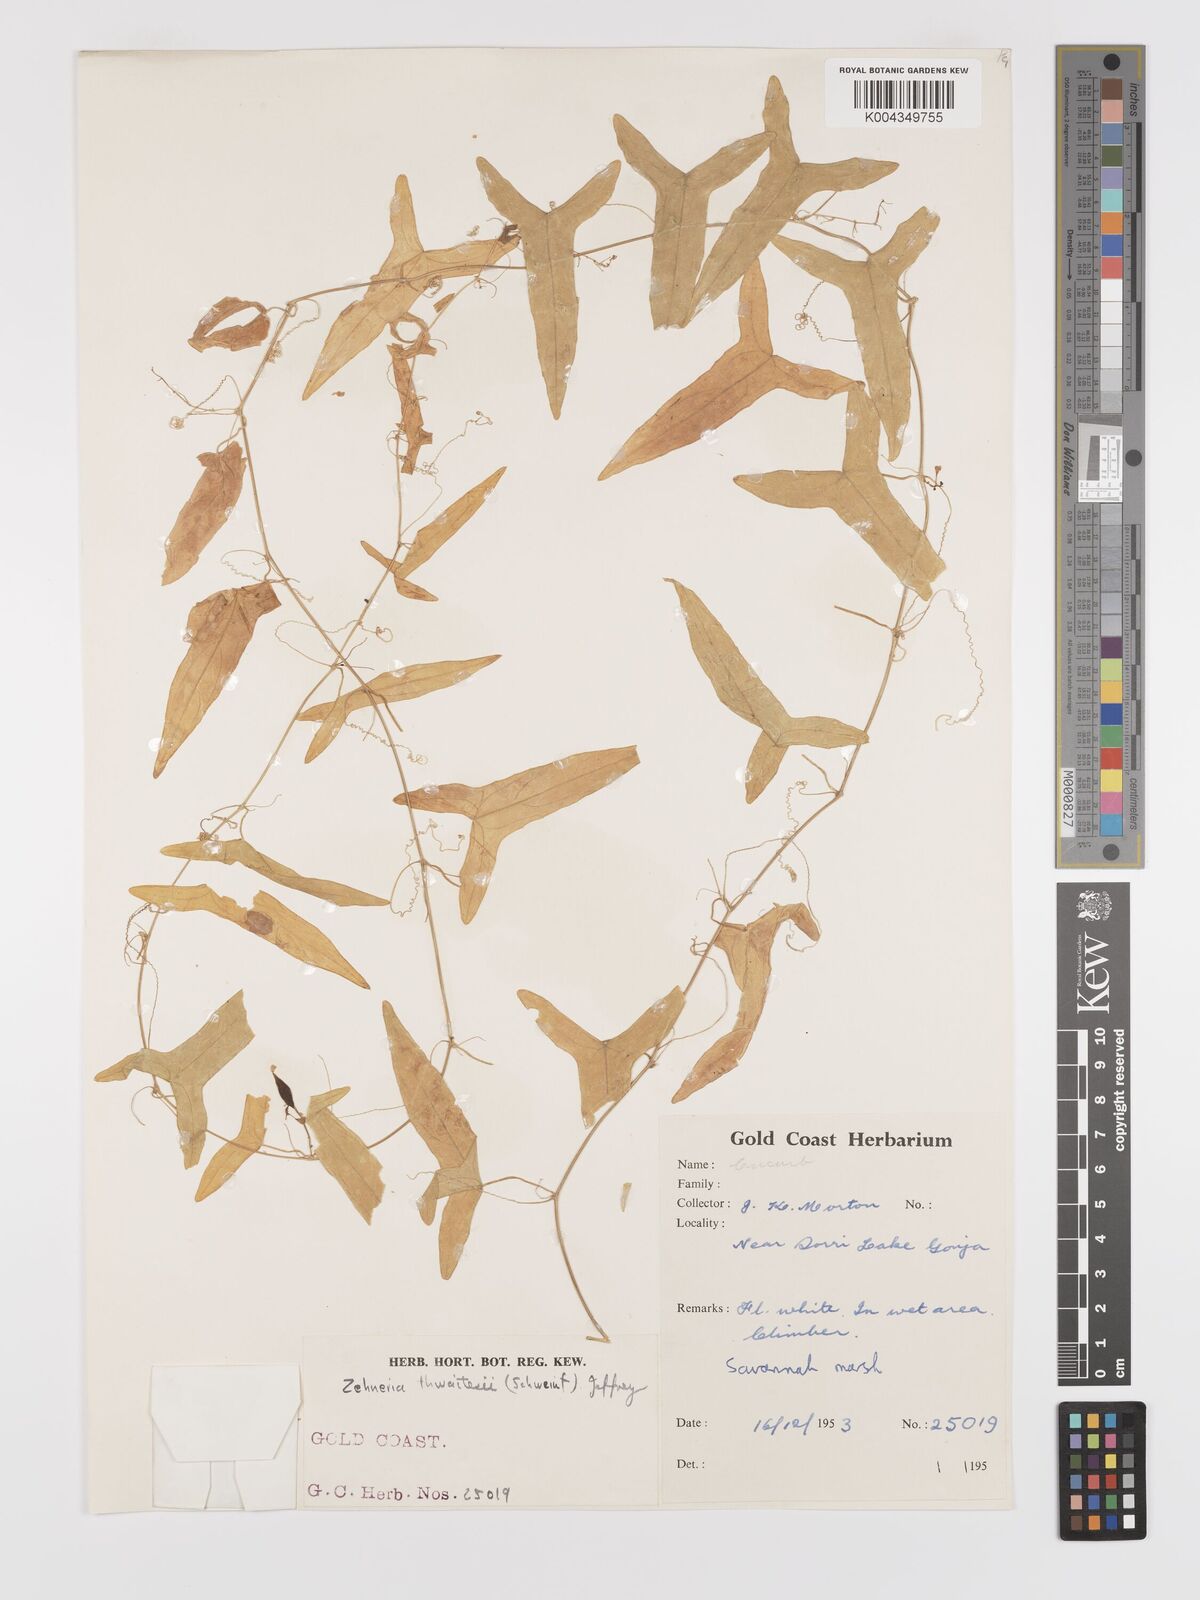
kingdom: Plantae
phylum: Tracheophyta
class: Magnoliopsida
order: Cucurbitales
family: Cucurbitaceae
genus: Zehneria
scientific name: Zehneria thwaitesii
